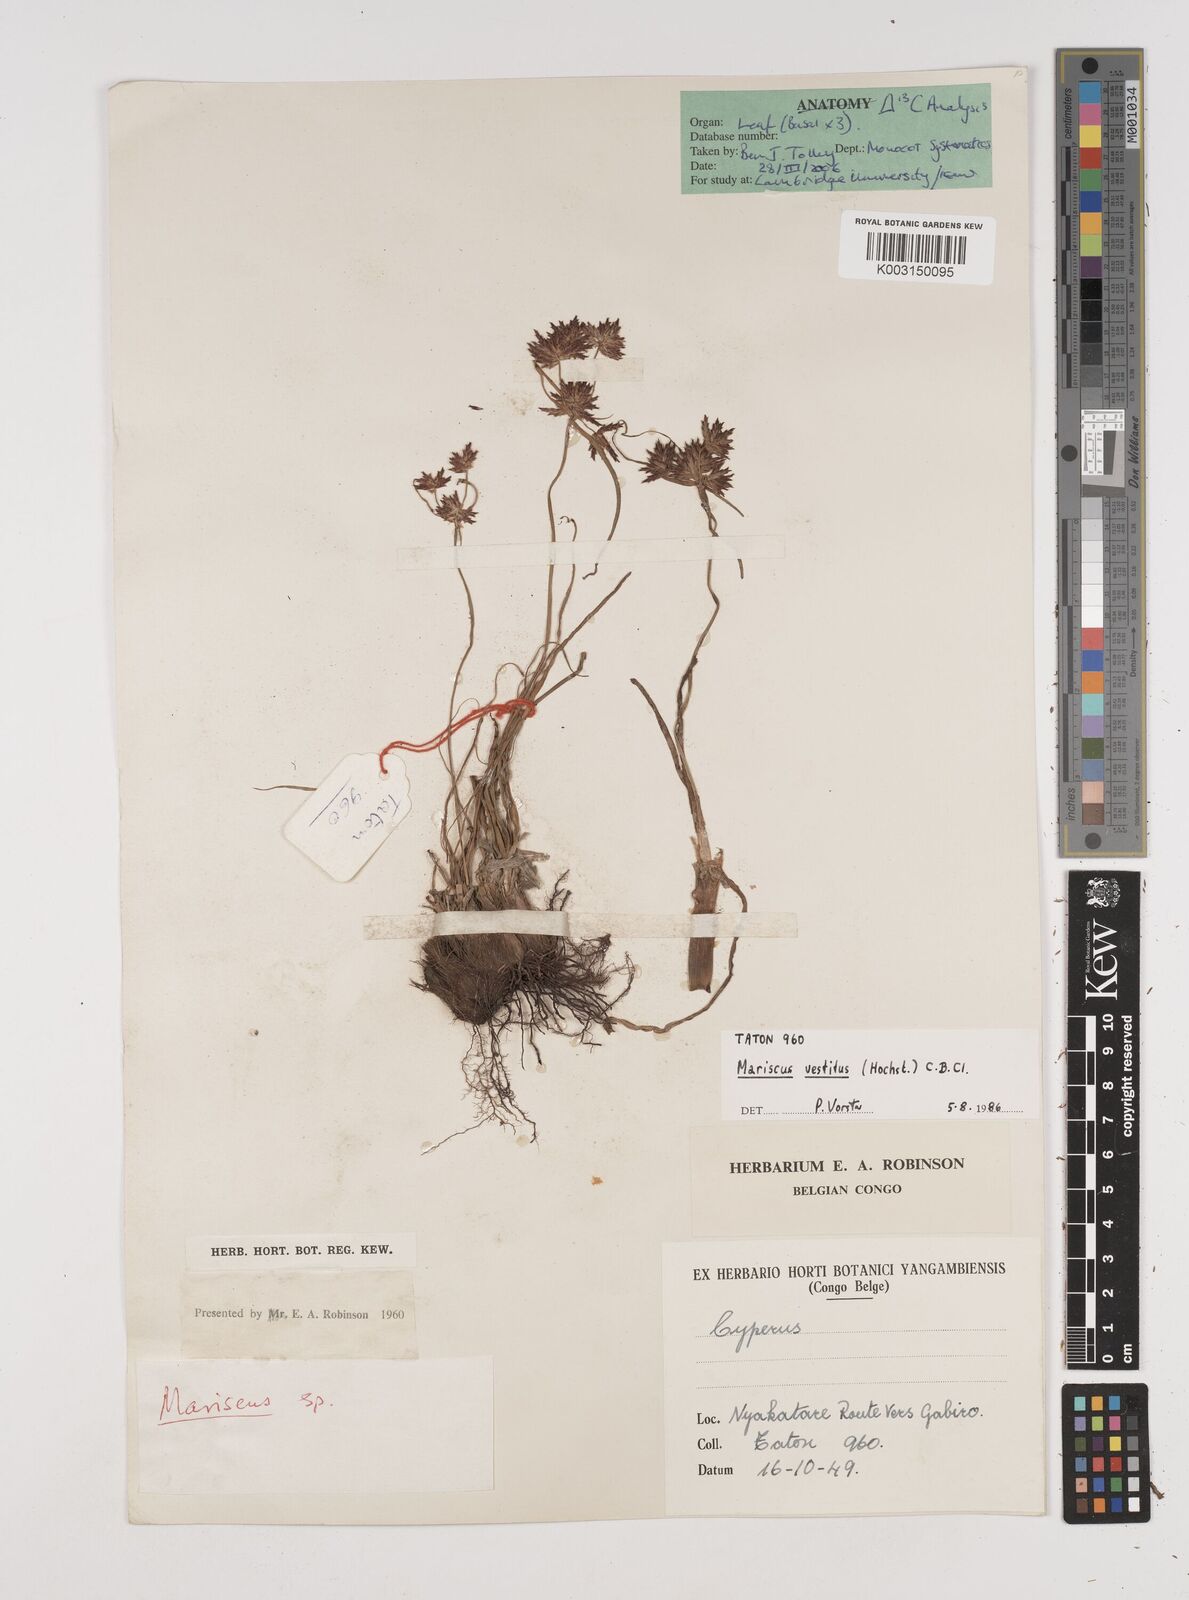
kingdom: Plantae
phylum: Tracheophyta
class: Liliopsida
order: Poales
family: Cyperaceae
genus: Cyperus
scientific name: Cyperus vestitus
